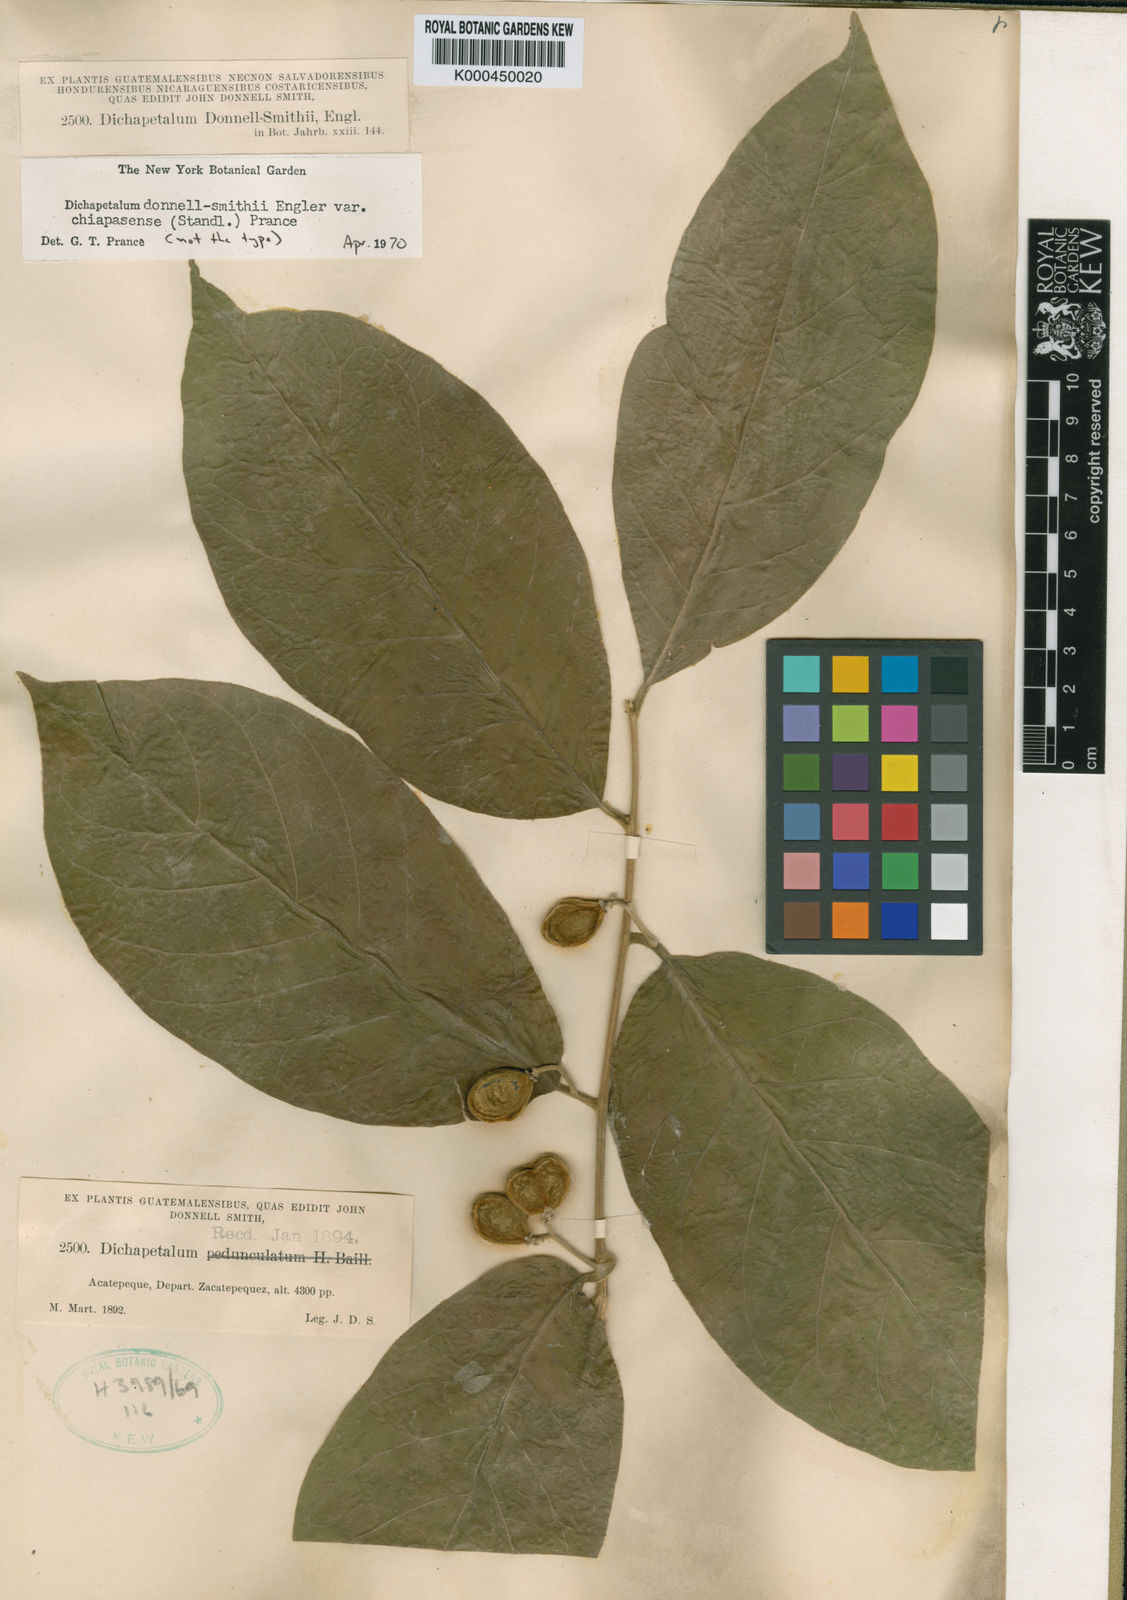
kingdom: Plantae
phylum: Tracheophyta
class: Magnoliopsida
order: Malpighiales
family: Dichapetalaceae
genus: Dichapetalum
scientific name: Dichapetalum donnell-smithii
